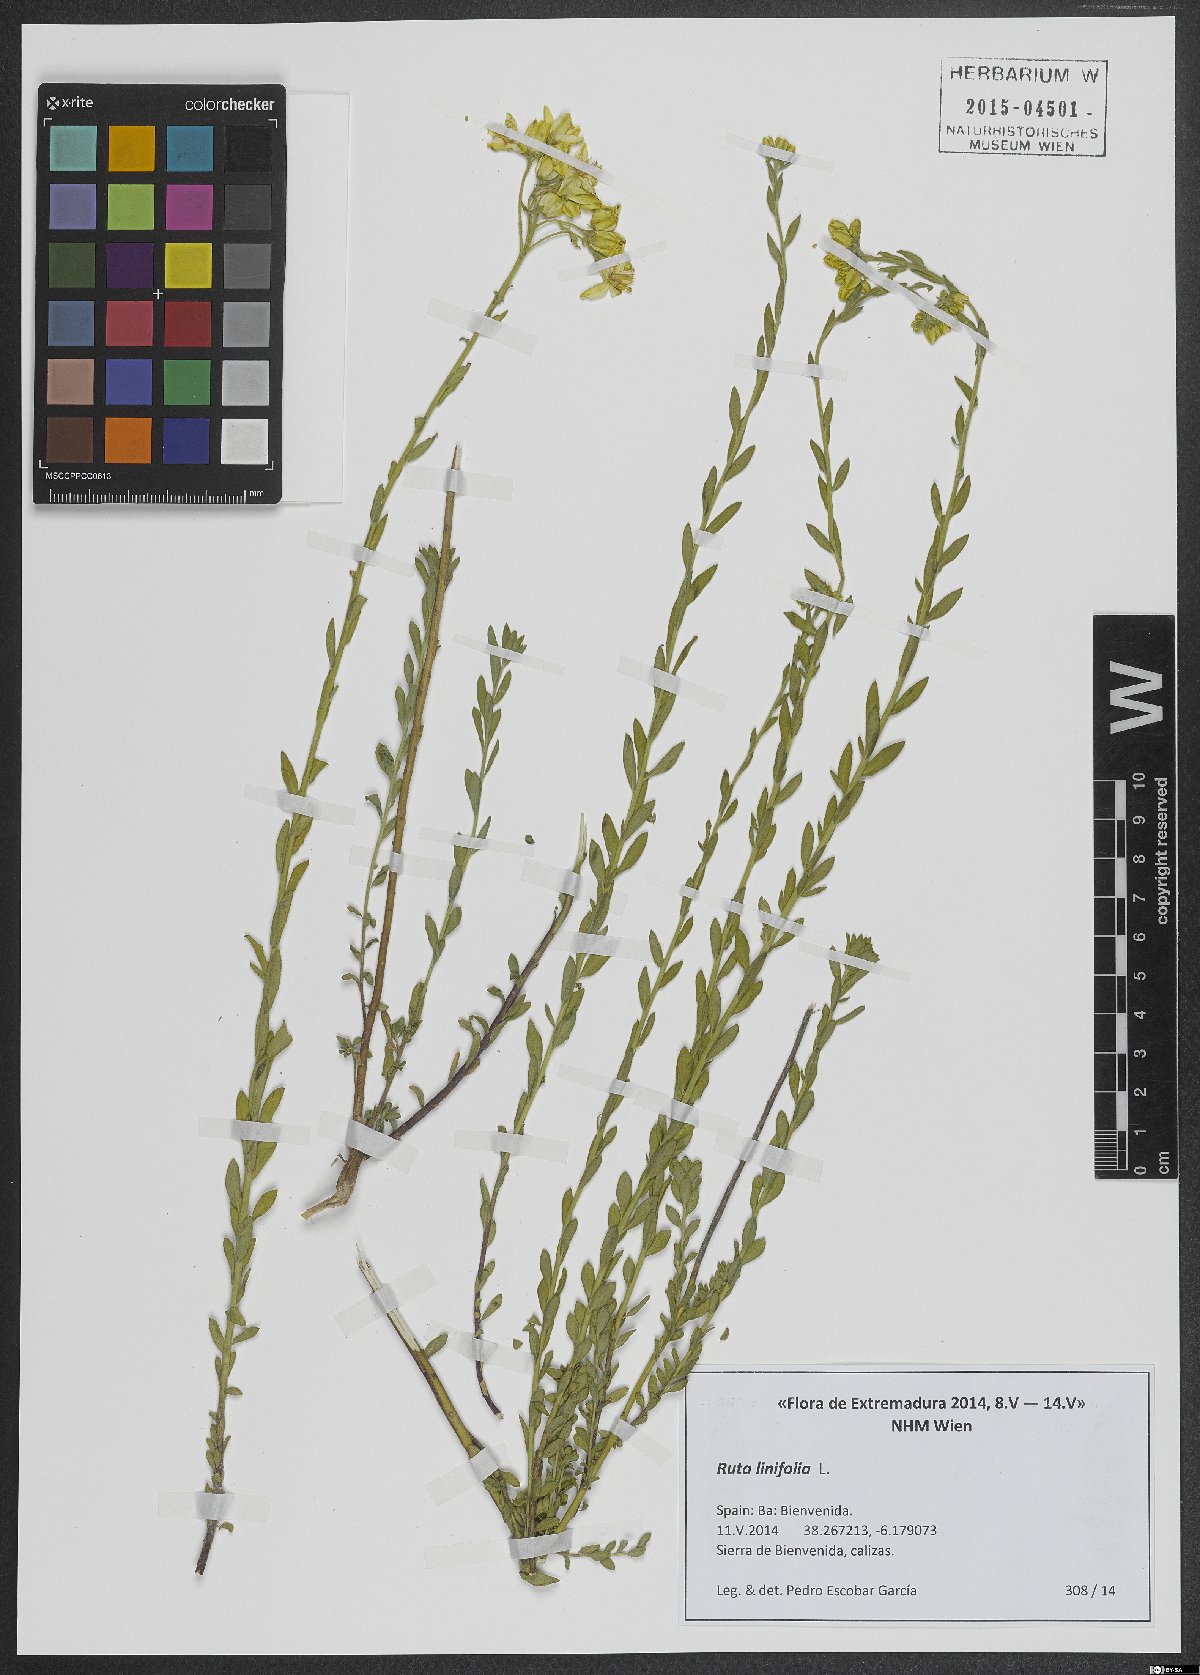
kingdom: Plantae
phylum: Tracheophyta
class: Magnoliopsida
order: Sapindales
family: Rutaceae
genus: Haplophyllum
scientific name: Haplophyllum linifolium
